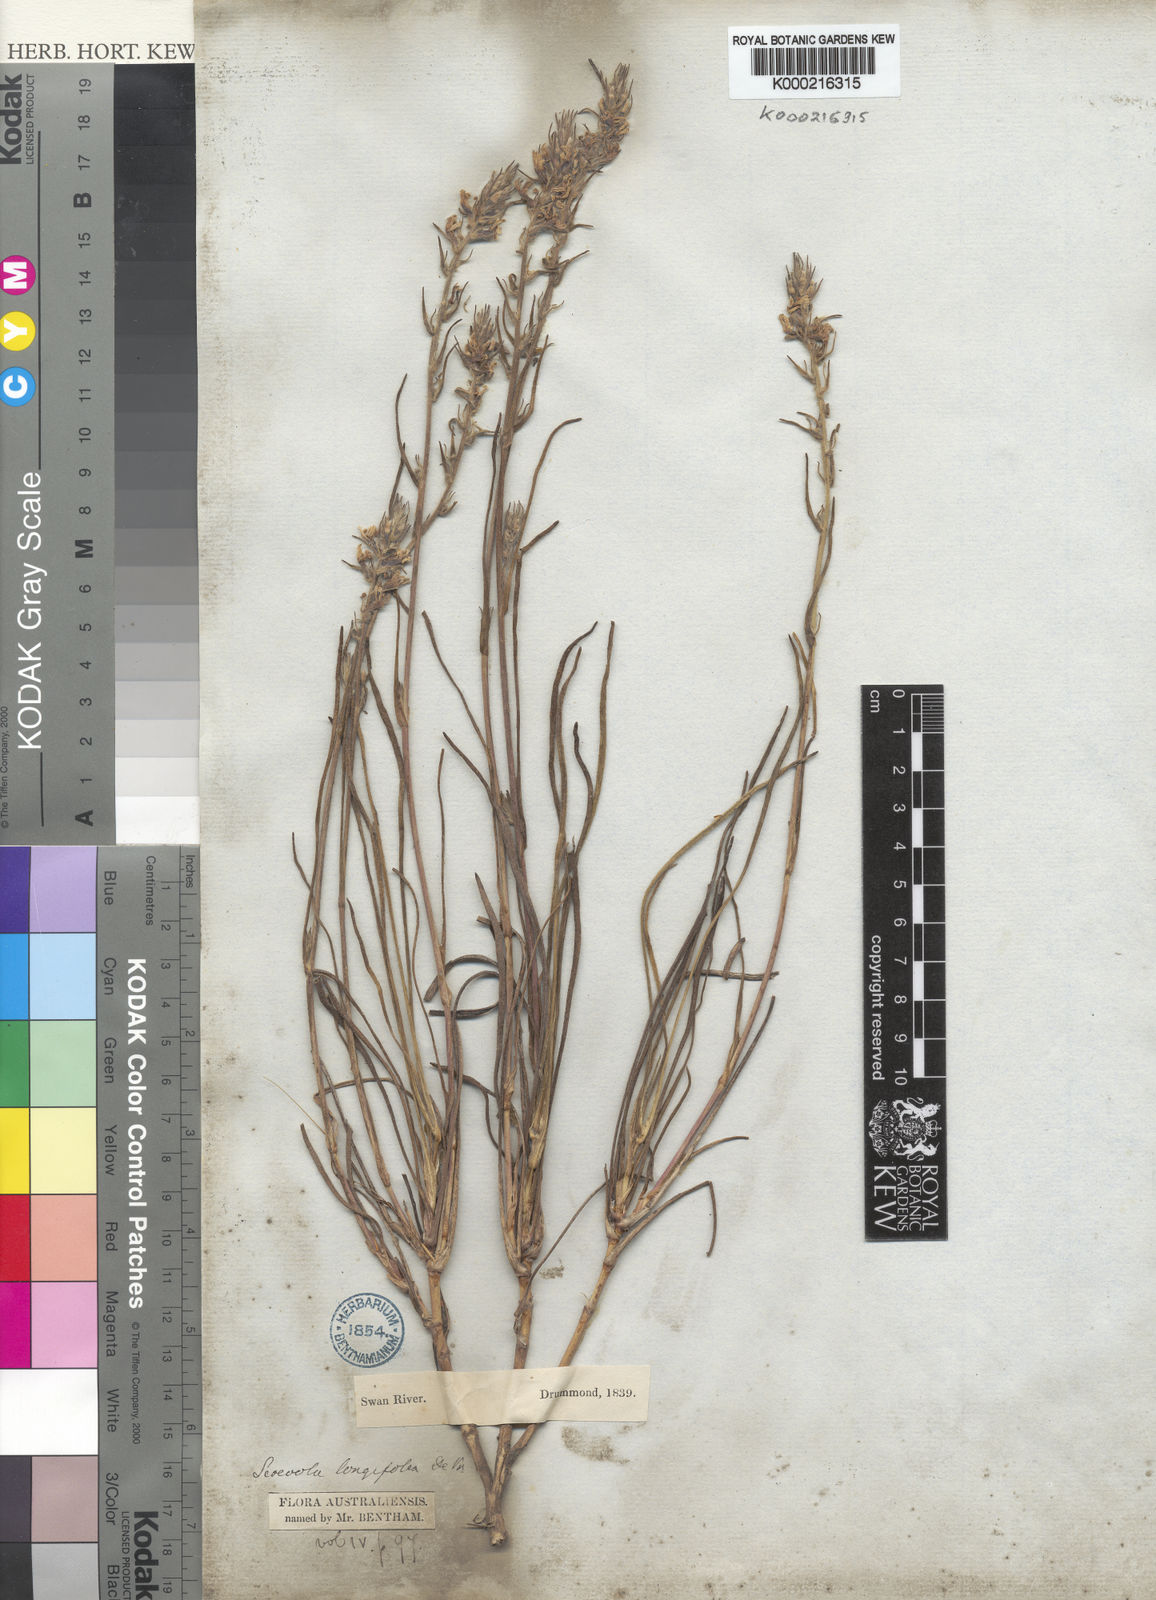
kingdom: Plantae
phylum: Tracheophyta
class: Magnoliopsida
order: Asterales
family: Goodeniaceae
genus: Scaevola
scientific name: Scaevola lanceolata
